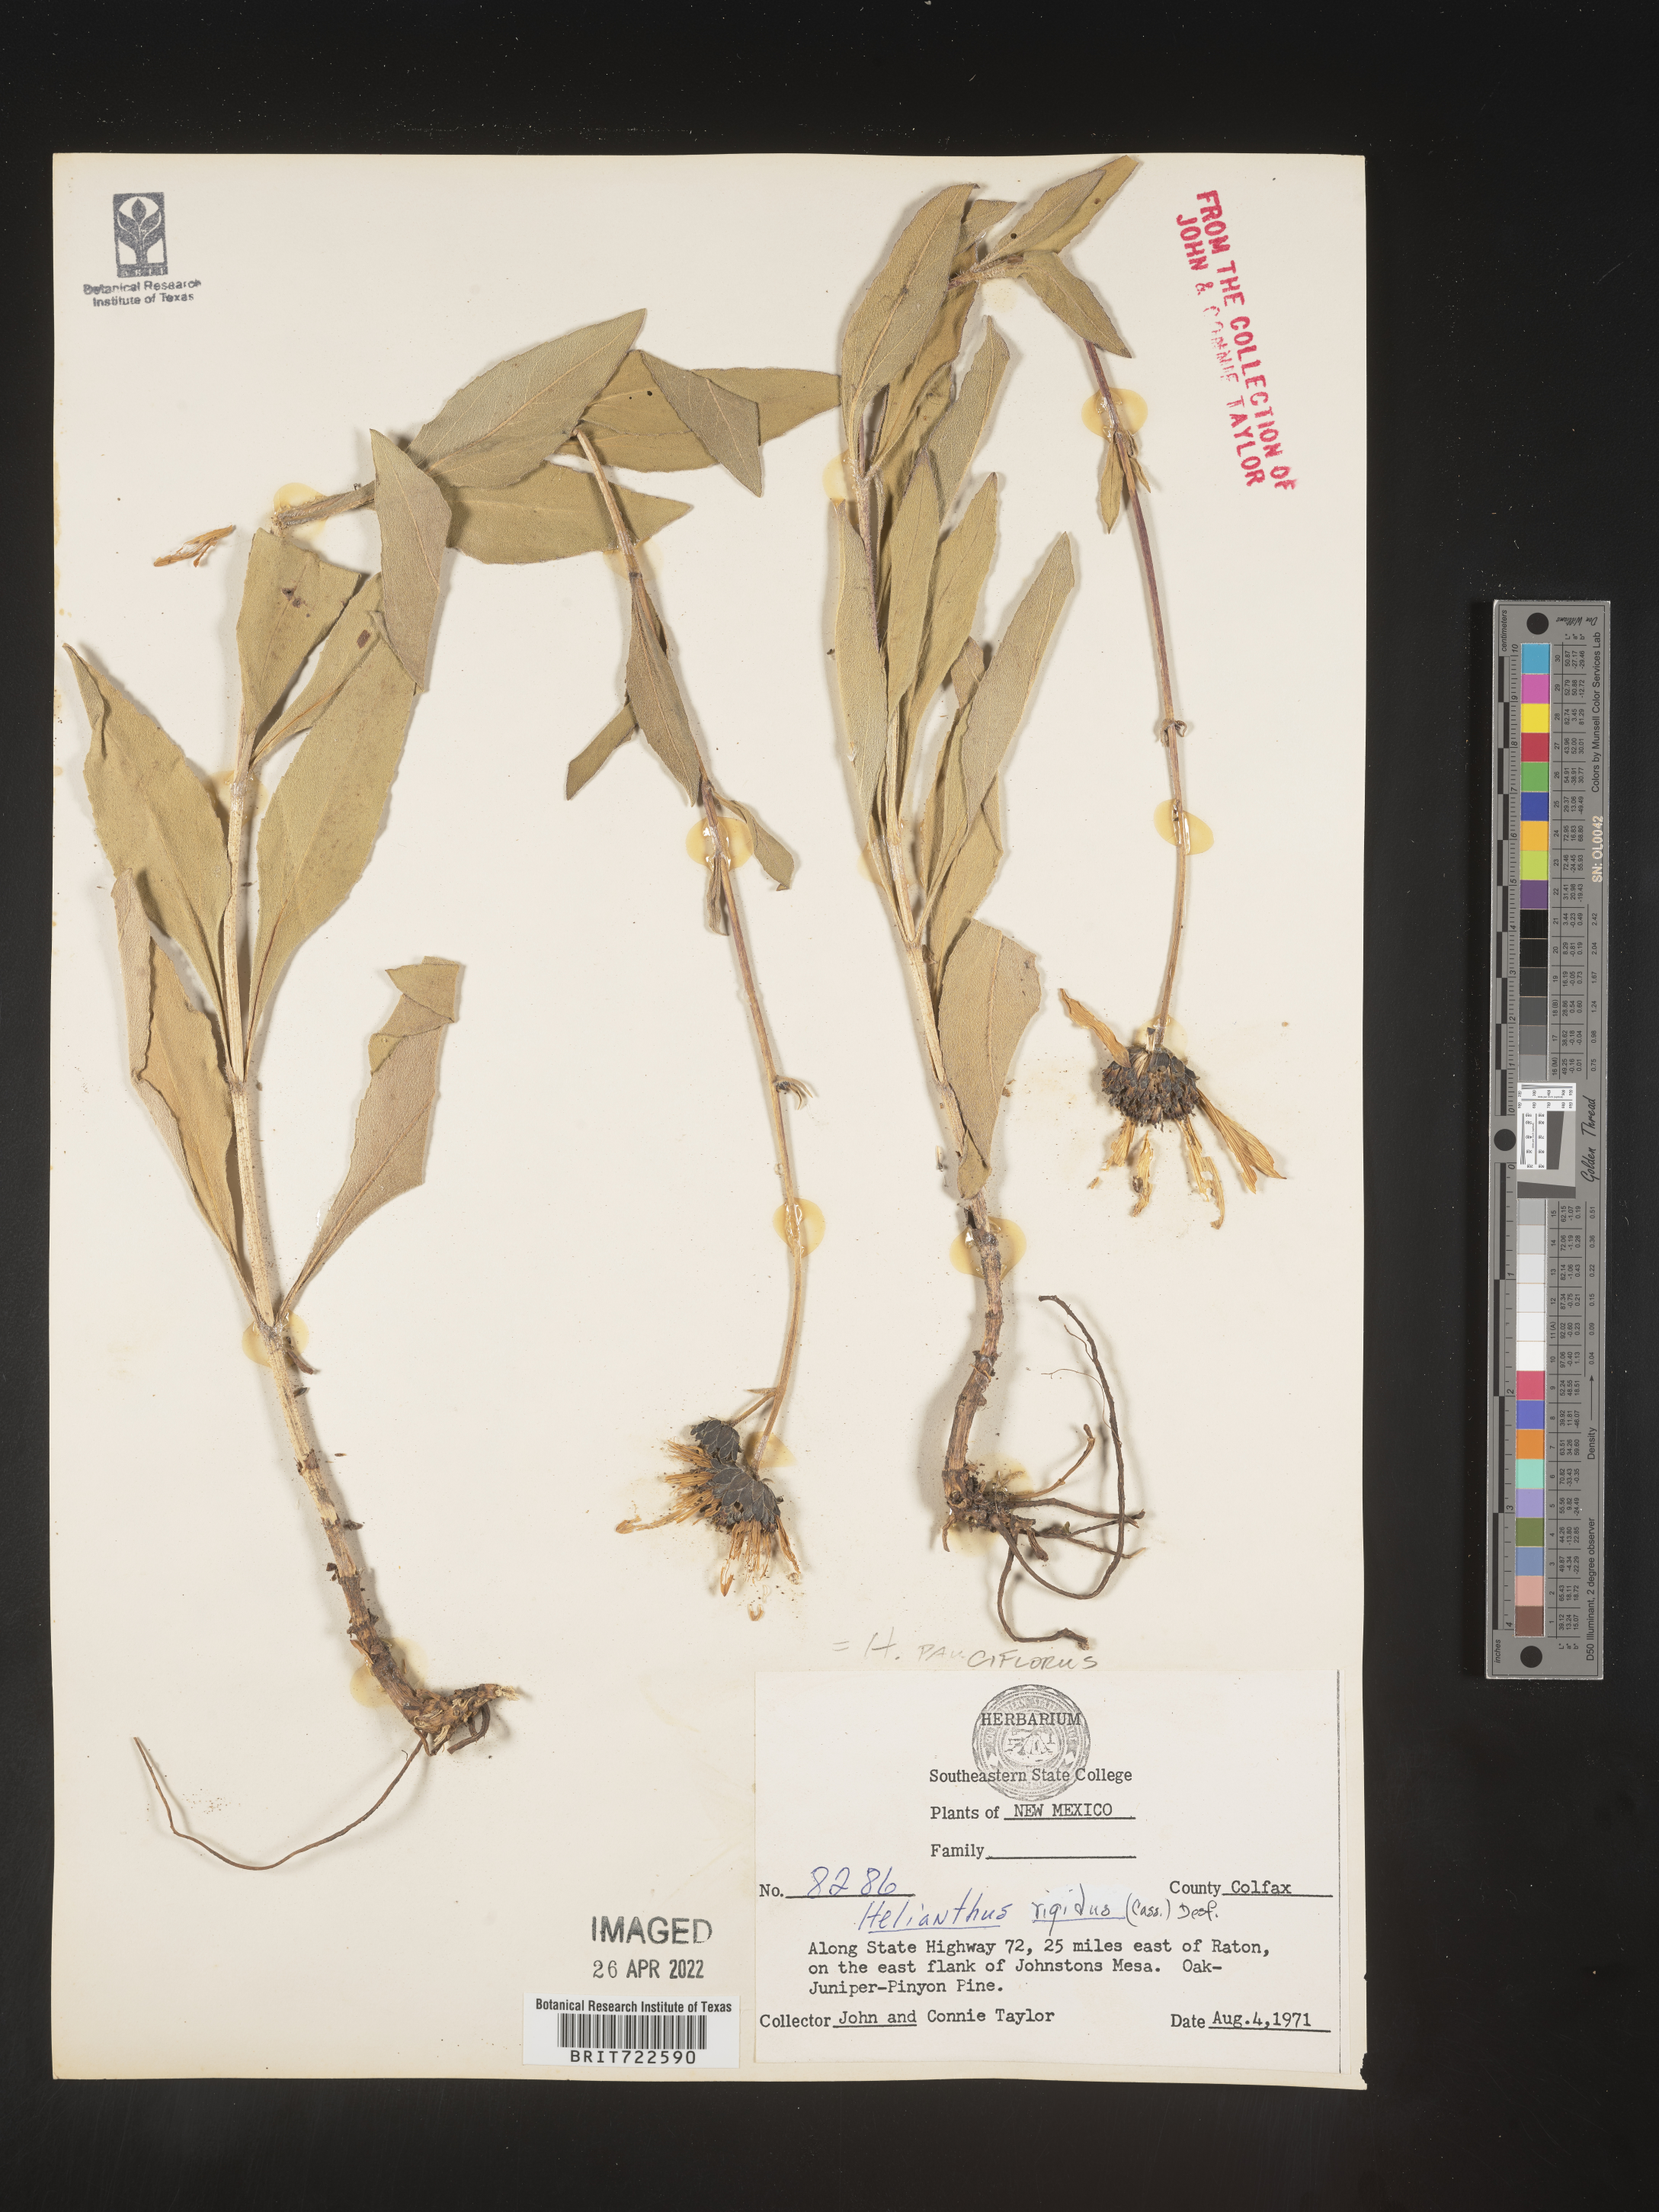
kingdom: Plantae
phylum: Tracheophyta
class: Magnoliopsida
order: Asterales
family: Asteraceae
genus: Helianthus
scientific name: Helianthus pauciflorus
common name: Stiff sunflower
